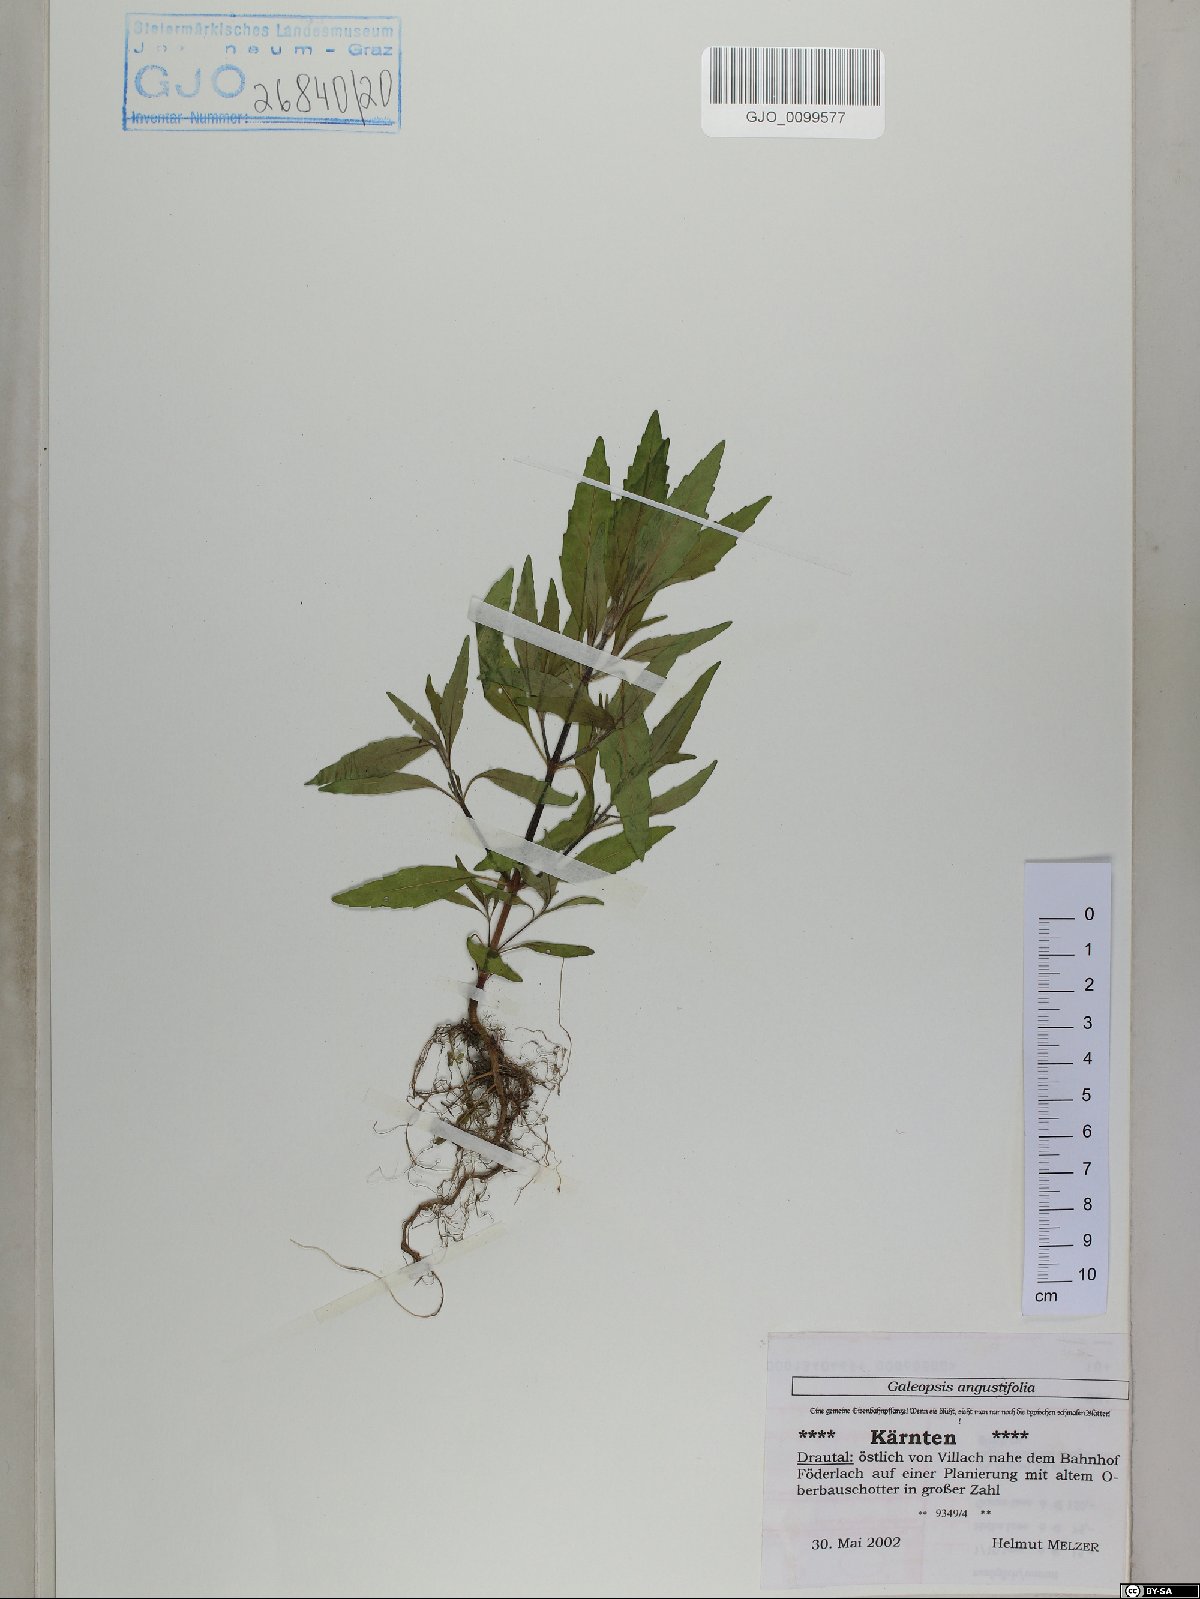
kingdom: Plantae
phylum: Tracheophyta
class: Magnoliopsida
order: Lamiales
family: Lamiaceae
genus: Galeopsis
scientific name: Galeopsis angustifolia
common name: Red hemp-nettle
